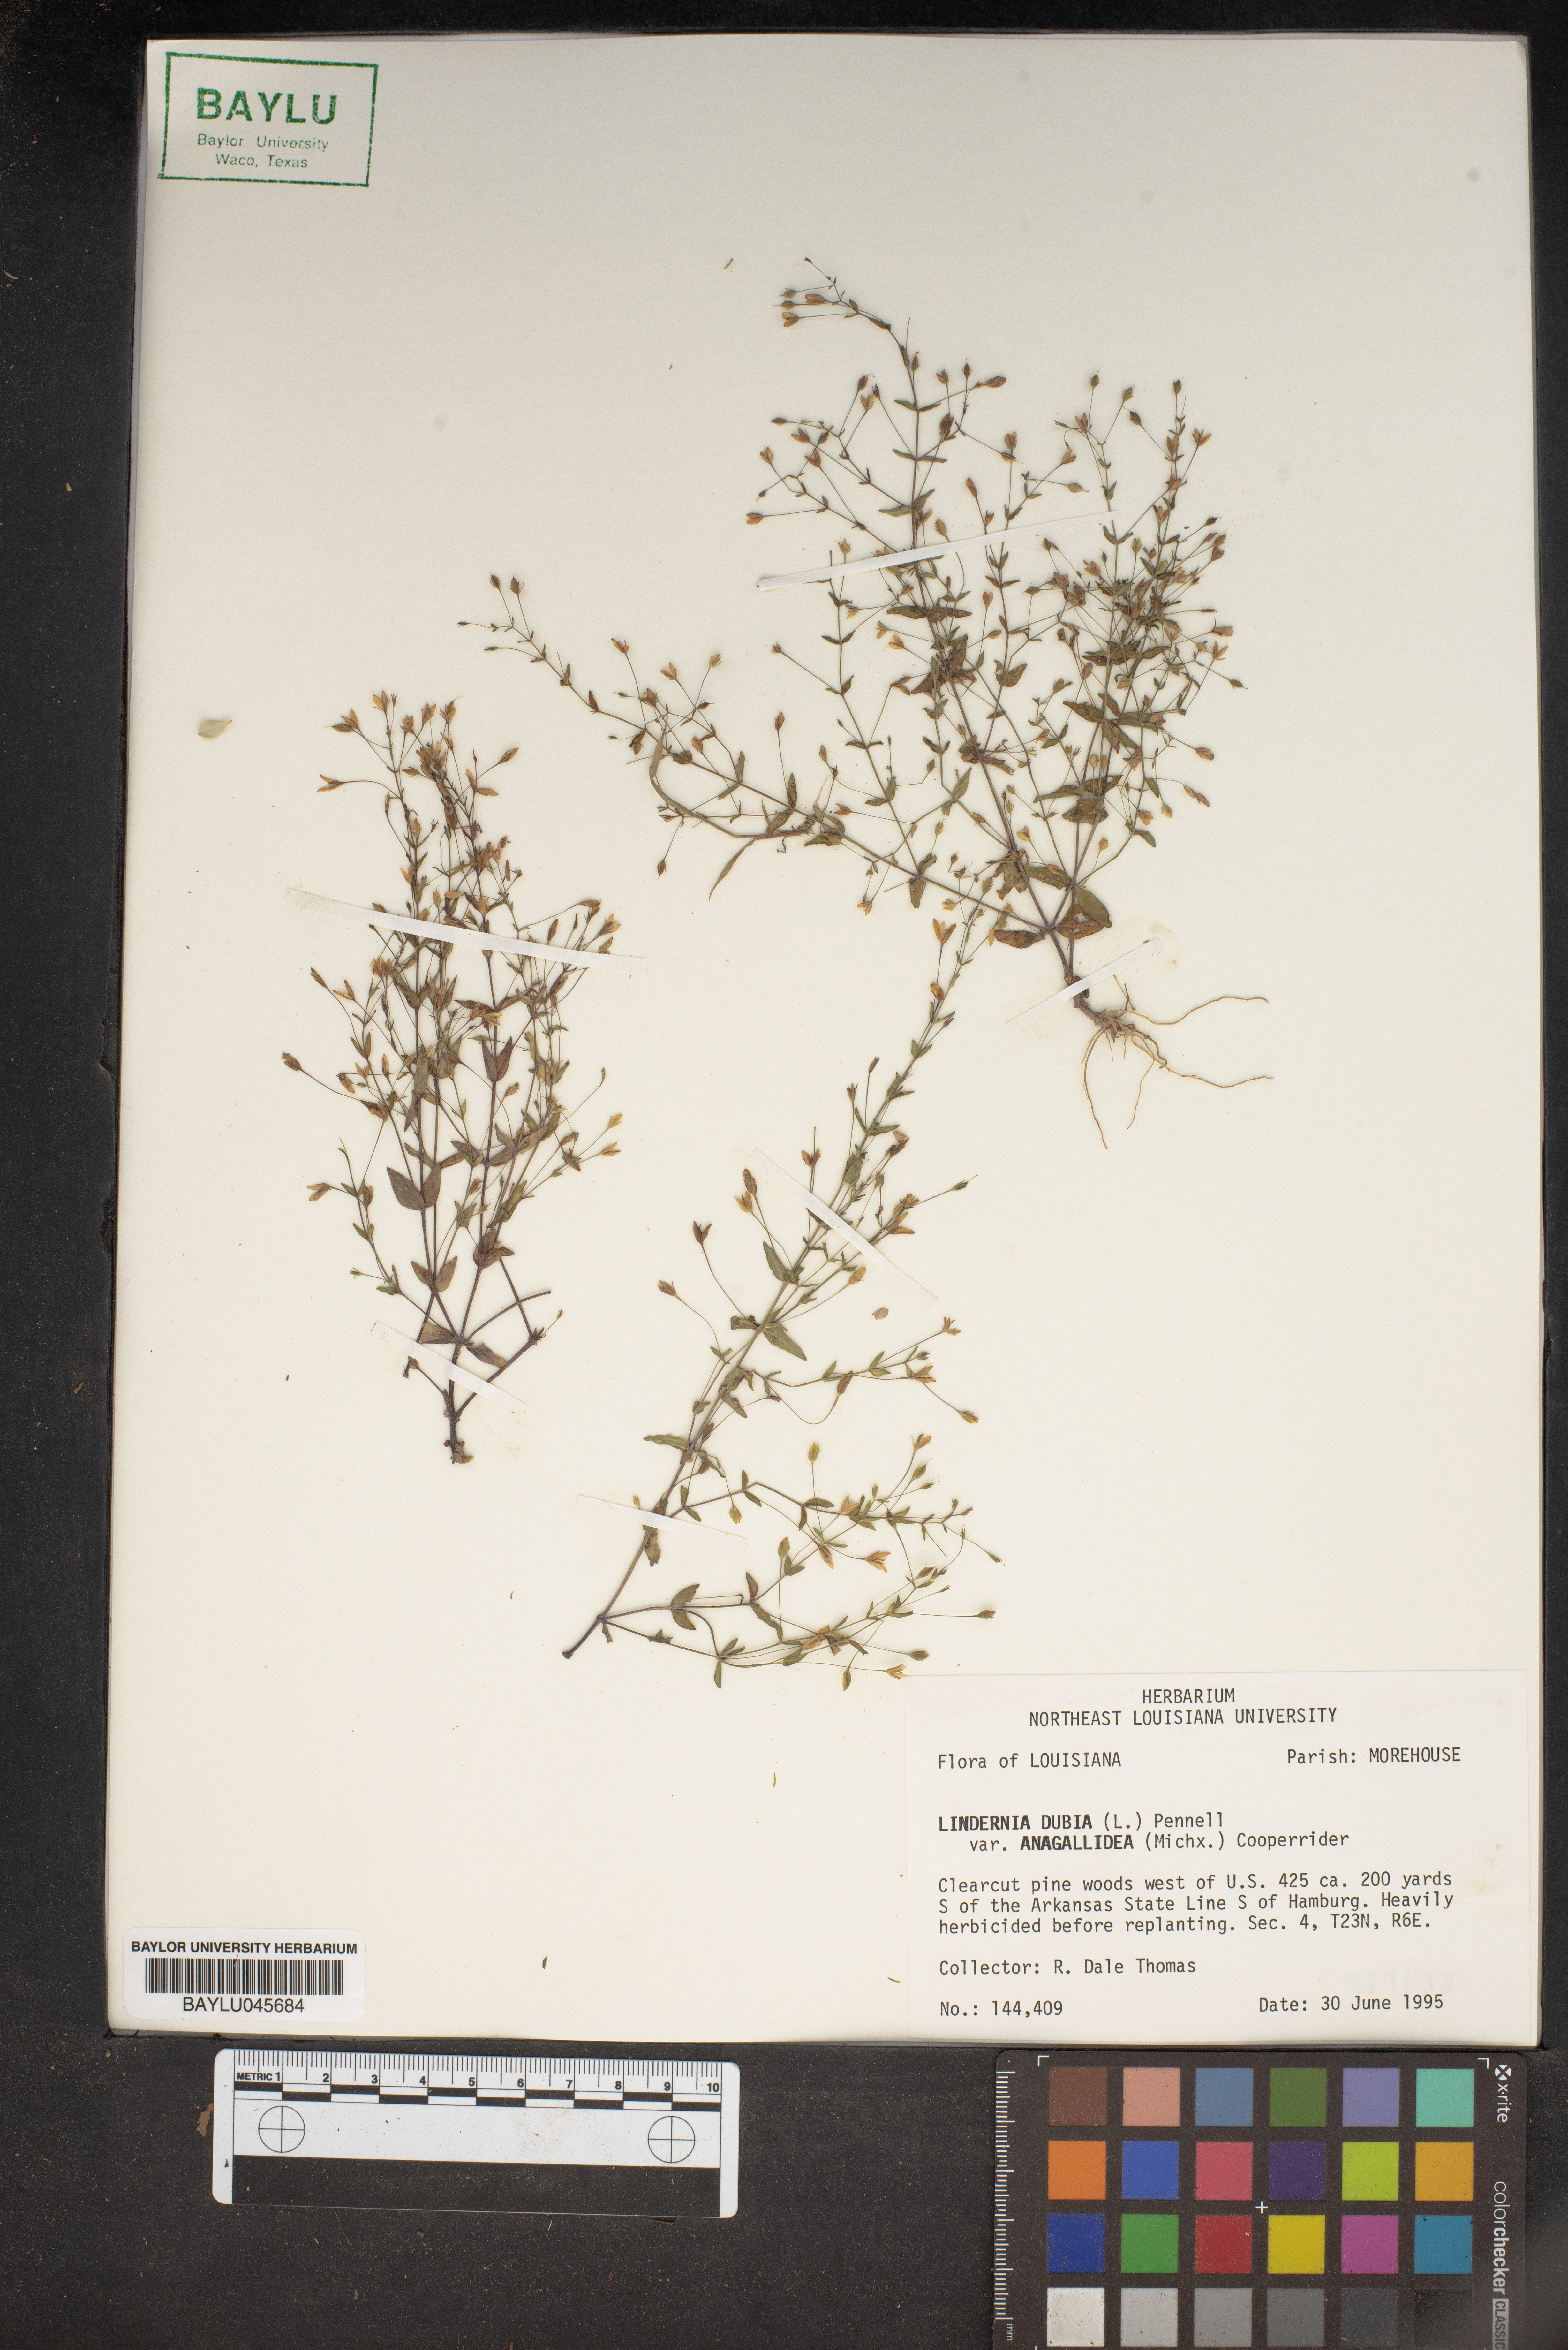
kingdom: Plantae
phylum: Tracheophyta
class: Magnoliopsida
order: Lamiales
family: Linderniaceae
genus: Lindernia
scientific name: Lindernia dubia
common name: Annual false pimpernel
